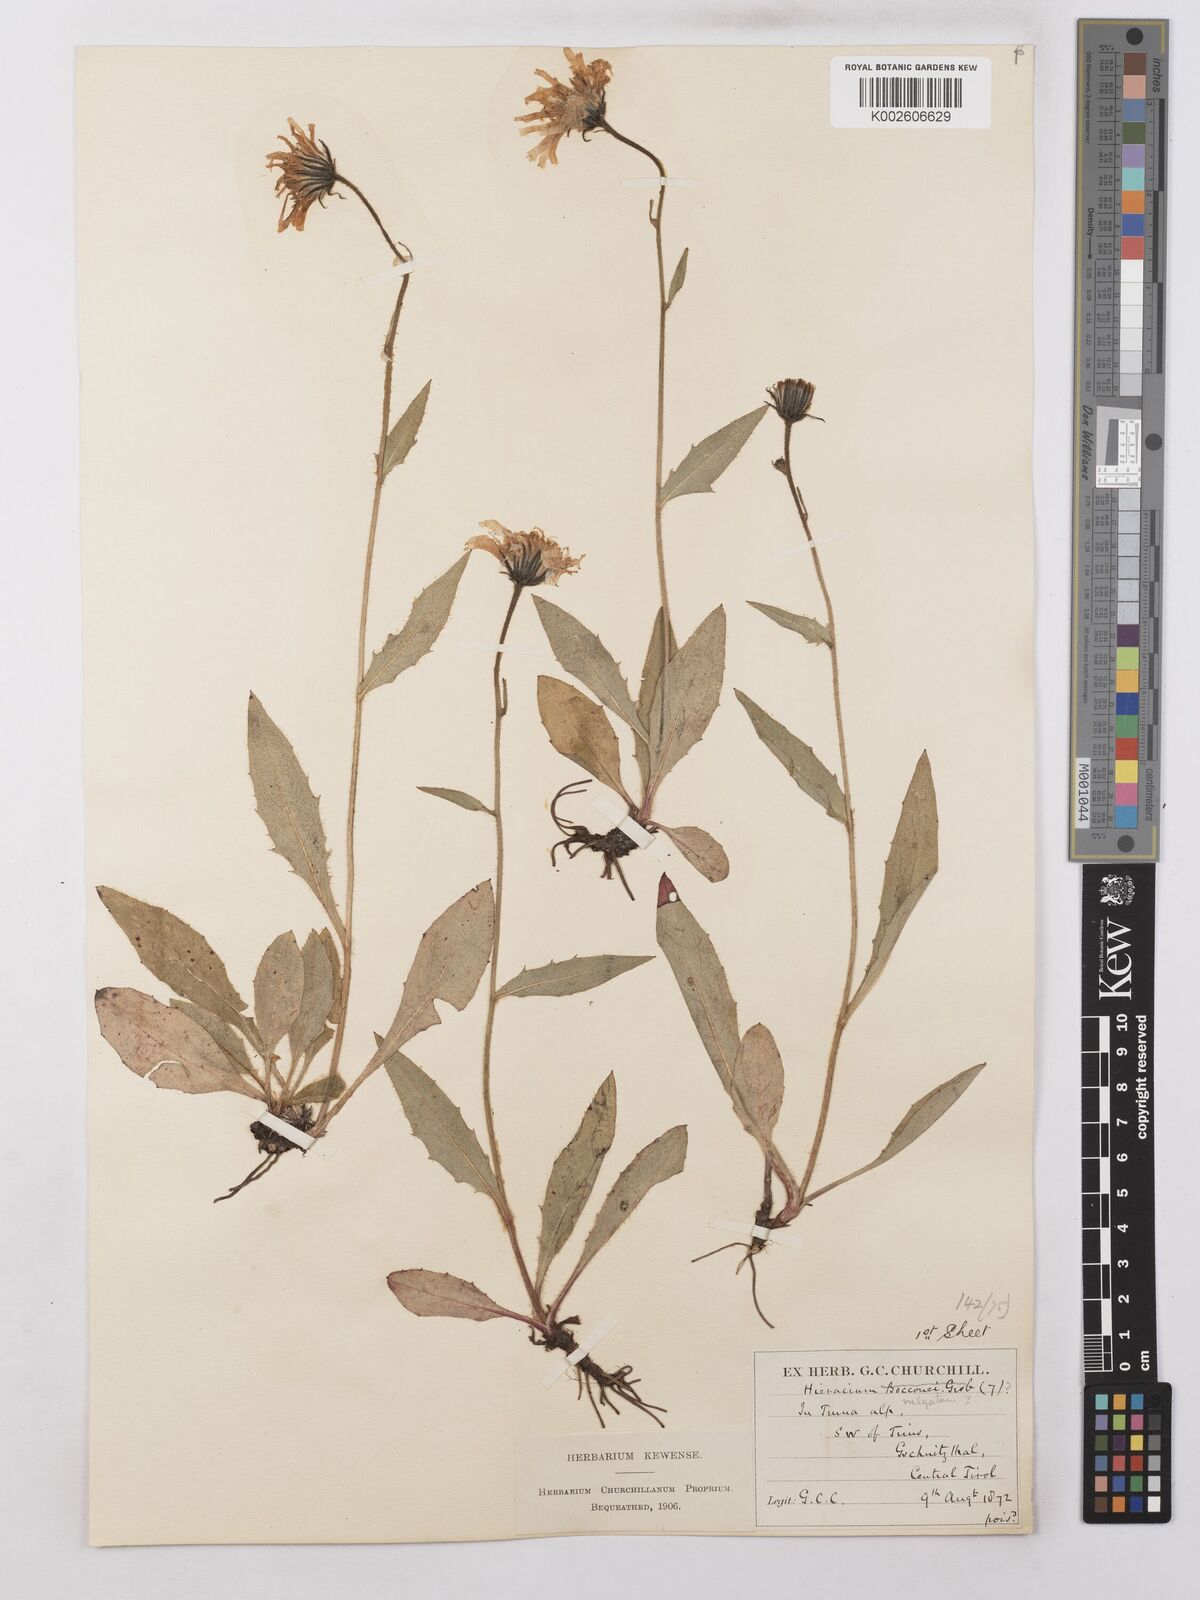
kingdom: Plantae
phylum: Tracheophyta
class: Magnoliopsida
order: Asterales
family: Asteraceae
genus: Hieracium
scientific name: Hieracium lachenalii
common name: Common hawkweed
